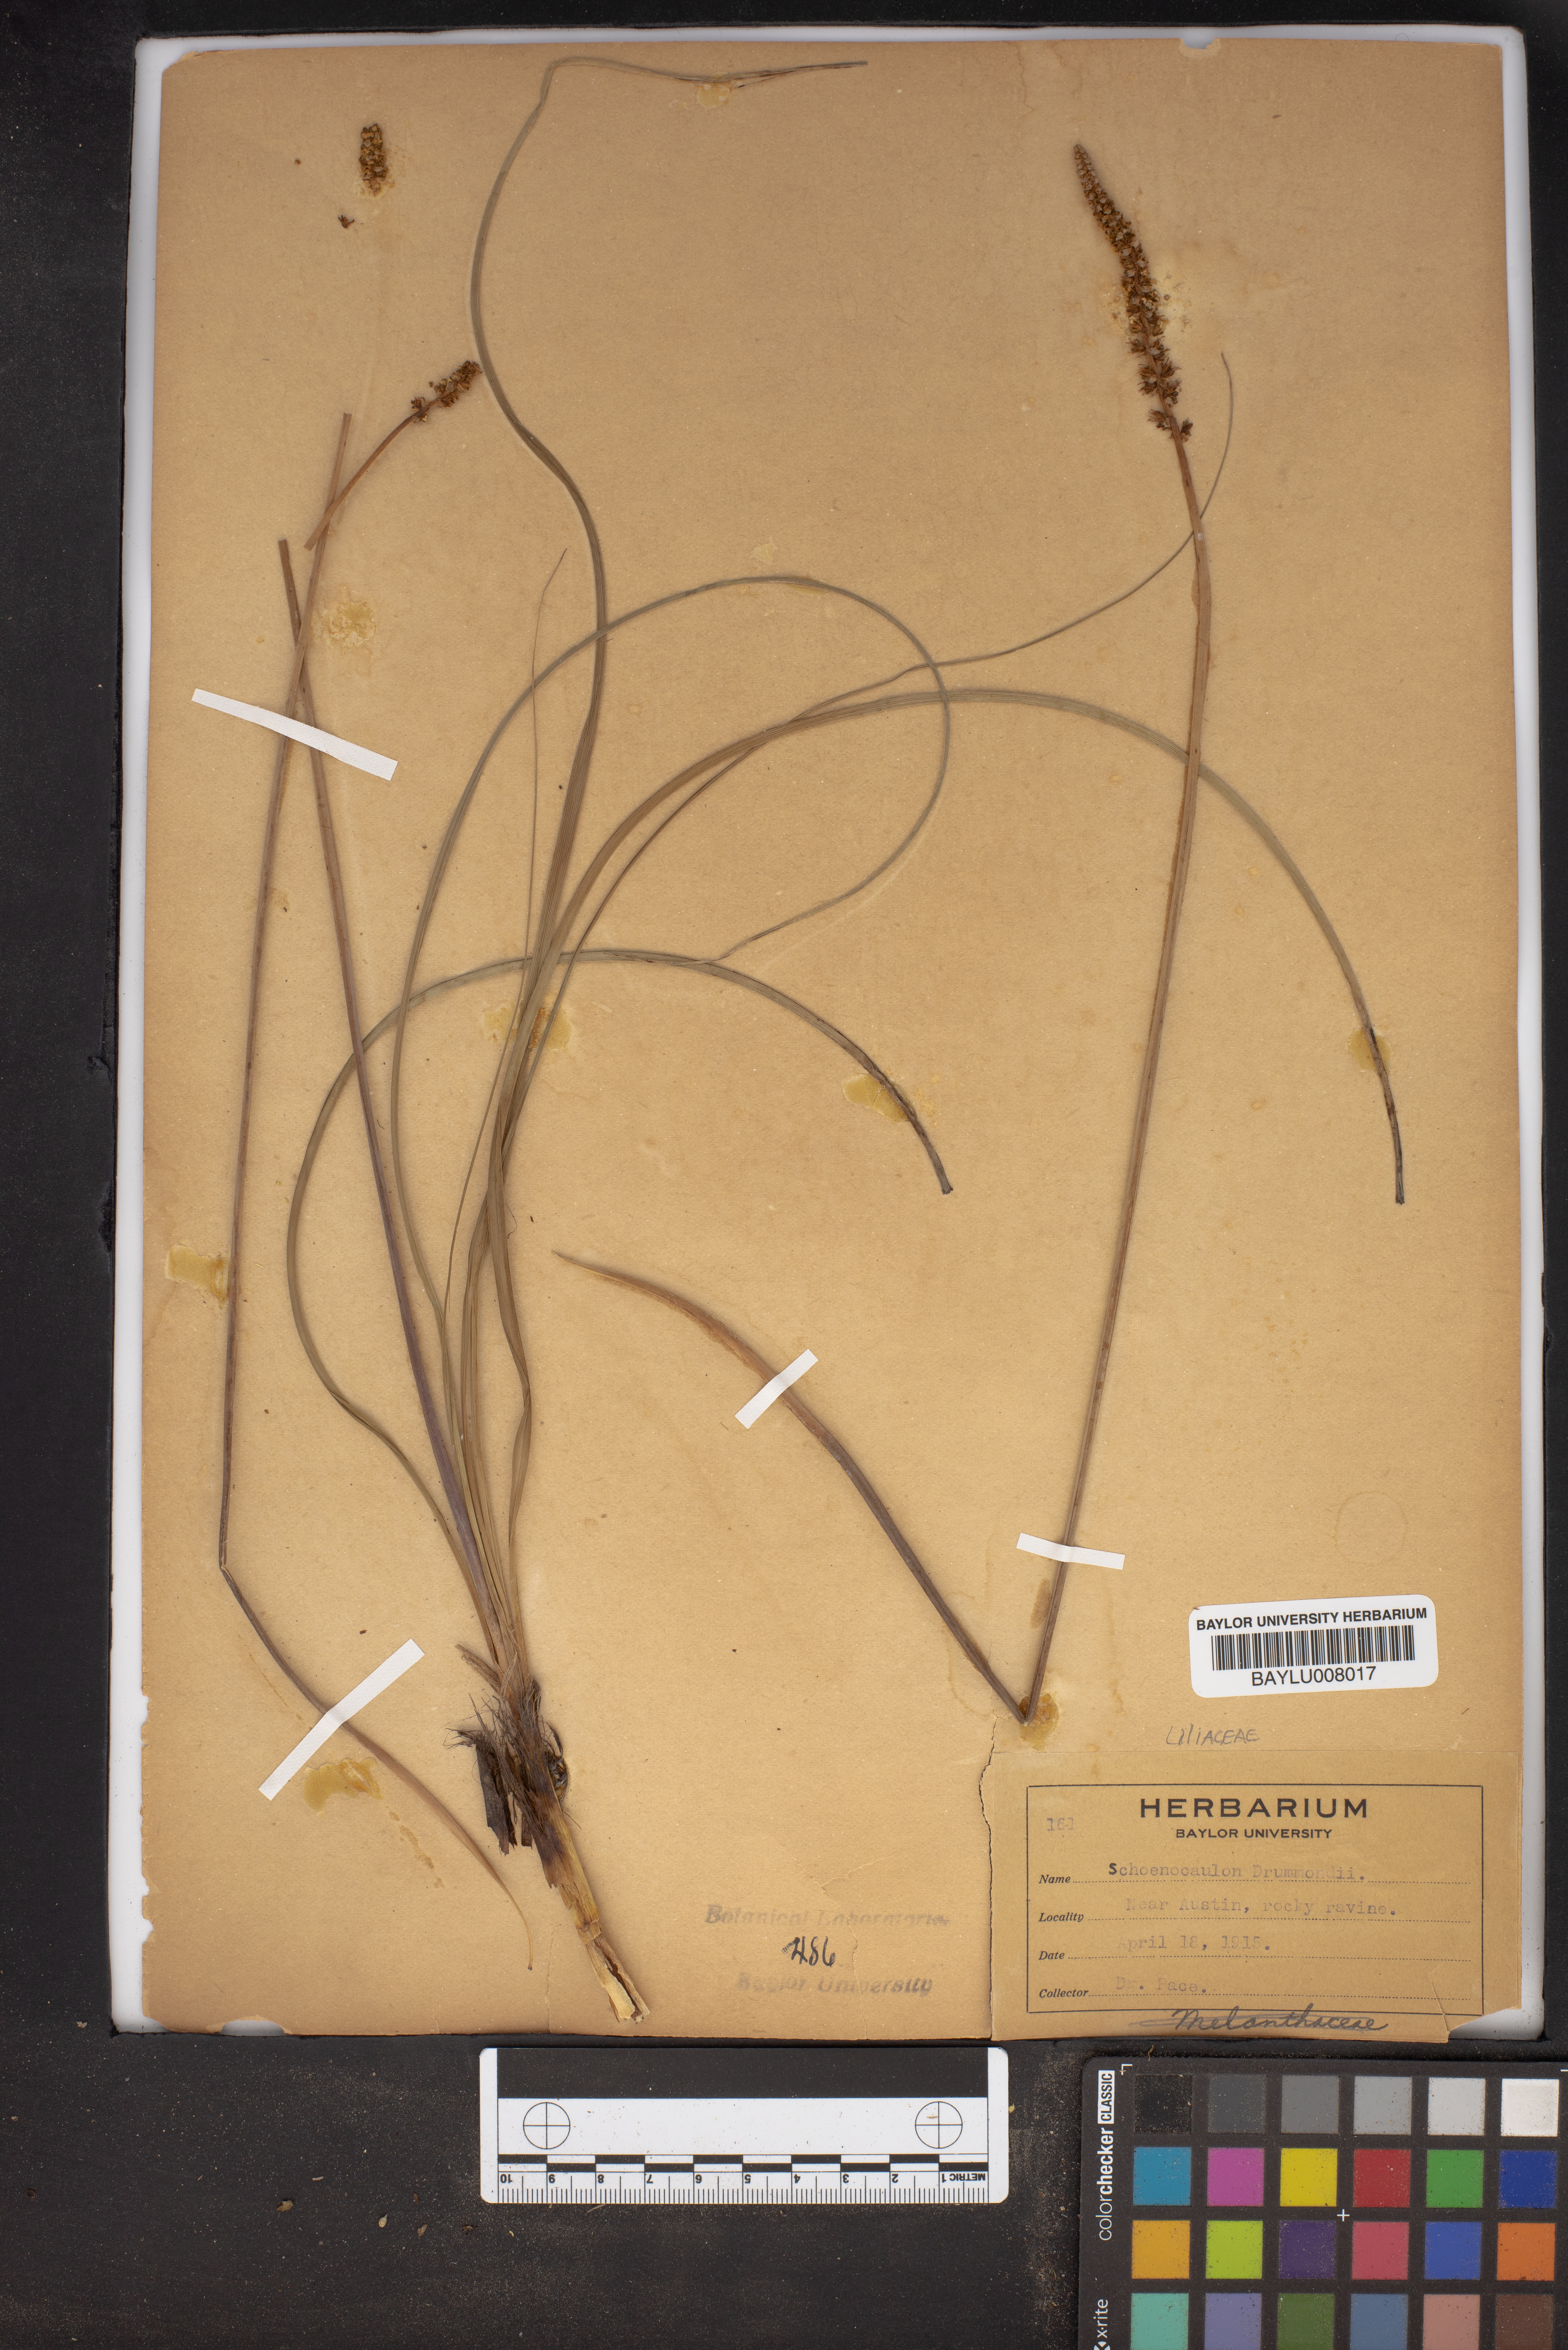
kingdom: Plantae
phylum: Tracheophyta
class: Liliopsida
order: Liliales
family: Melanthiaceae
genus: Schoenocaulon
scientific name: Schoenocaulon ghiesbreghtii
